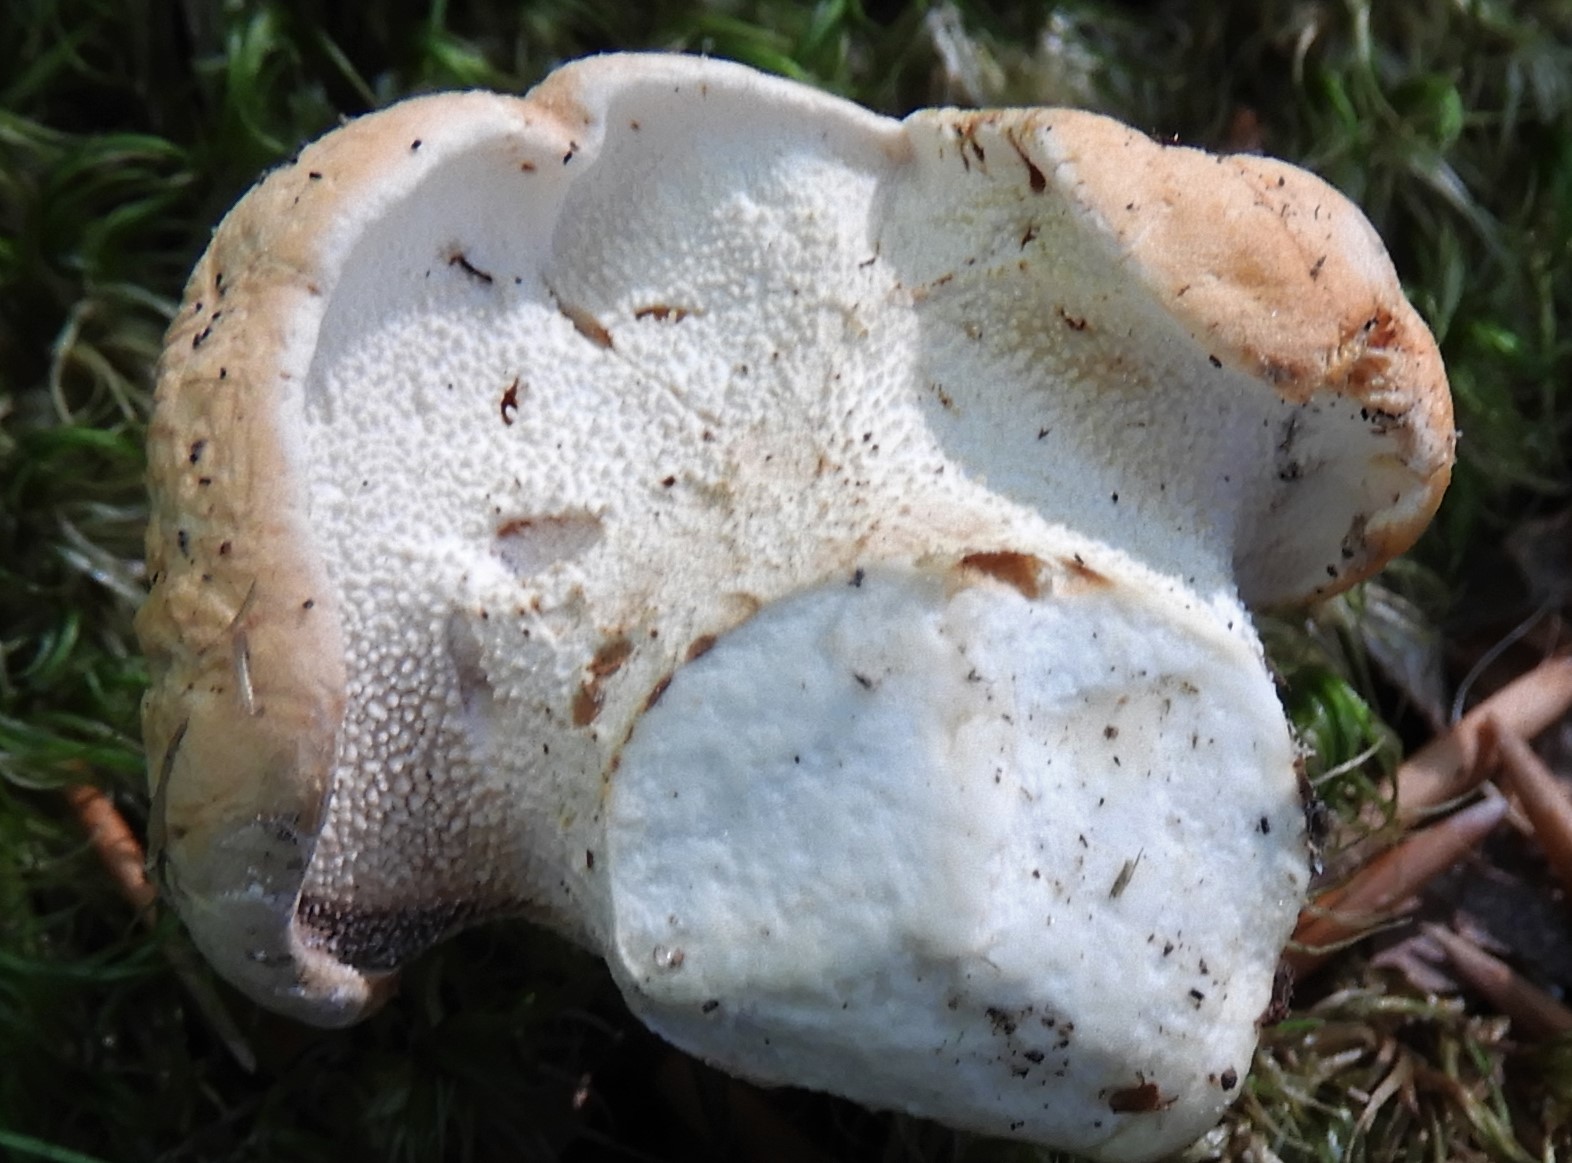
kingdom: Fungi
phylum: Basidiomycota
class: Agaricomycetes
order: Cantharellales
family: Hydnaceae
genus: Hydnum
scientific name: Hydnum repandum
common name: almindelig pigsvamp
